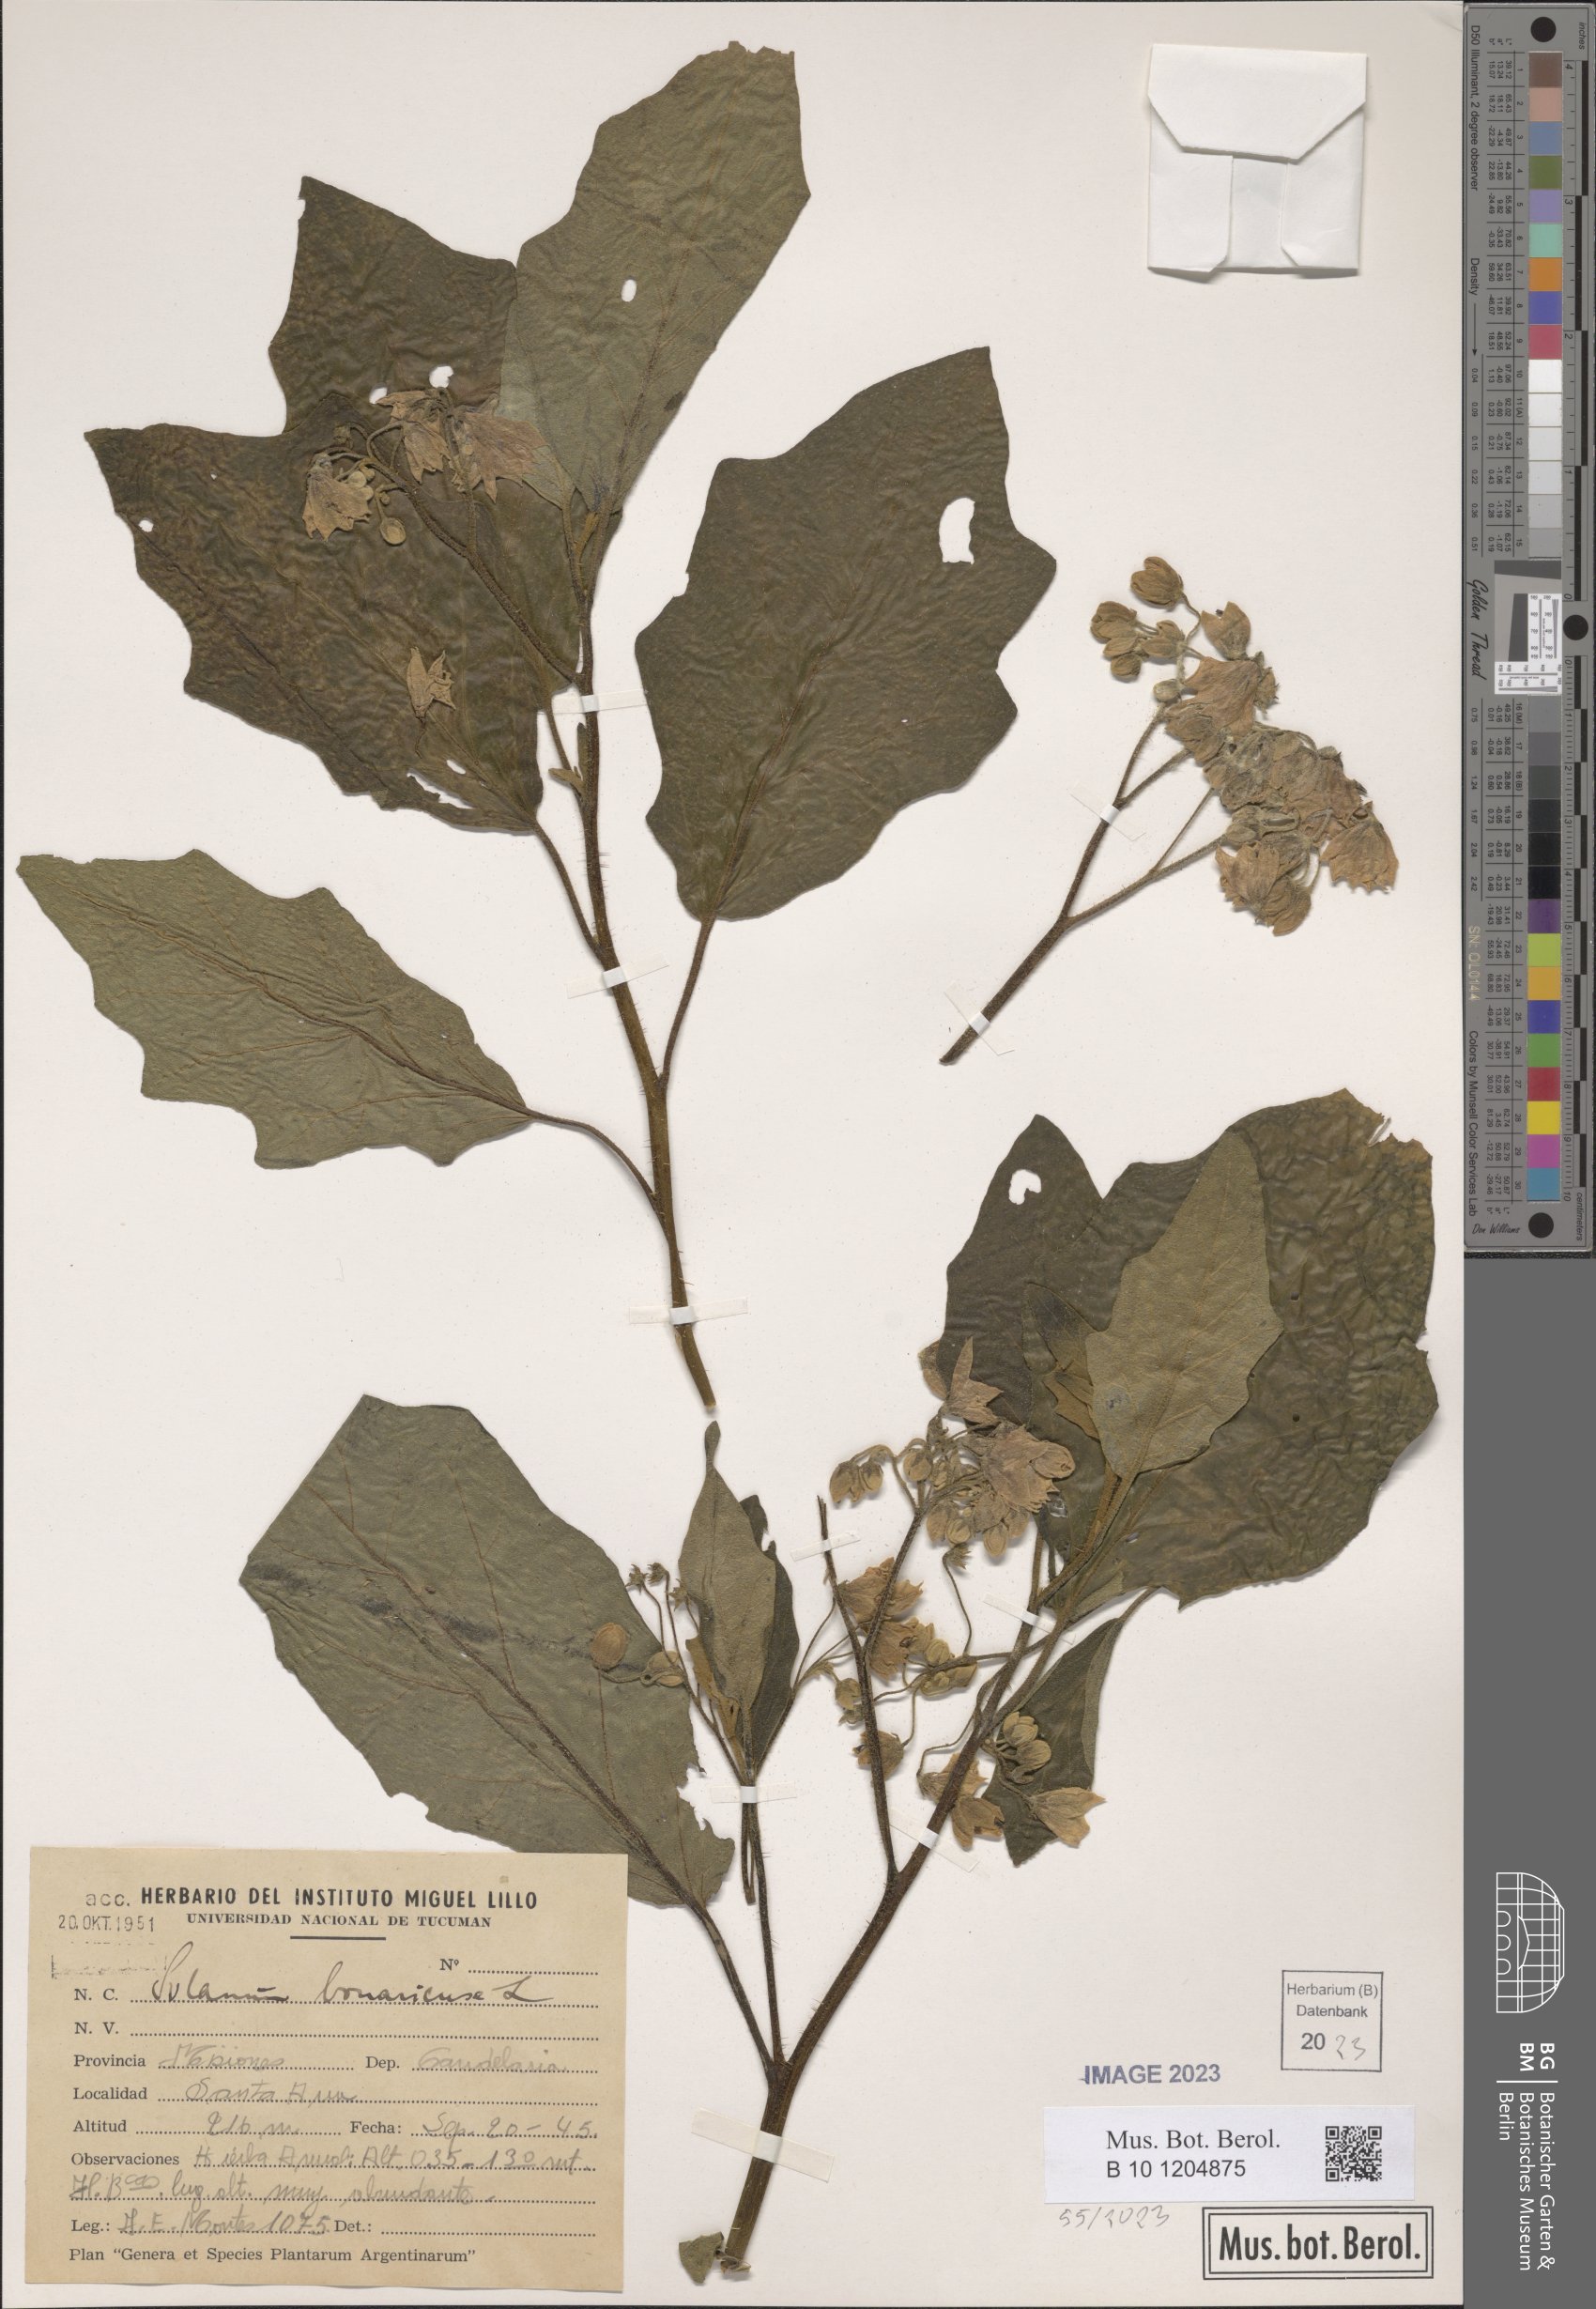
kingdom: Plantae
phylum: Tracheophyta
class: Magnoliopsida
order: Solanales
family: Solanaceae
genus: Solanum
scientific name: Solanum bonariense
